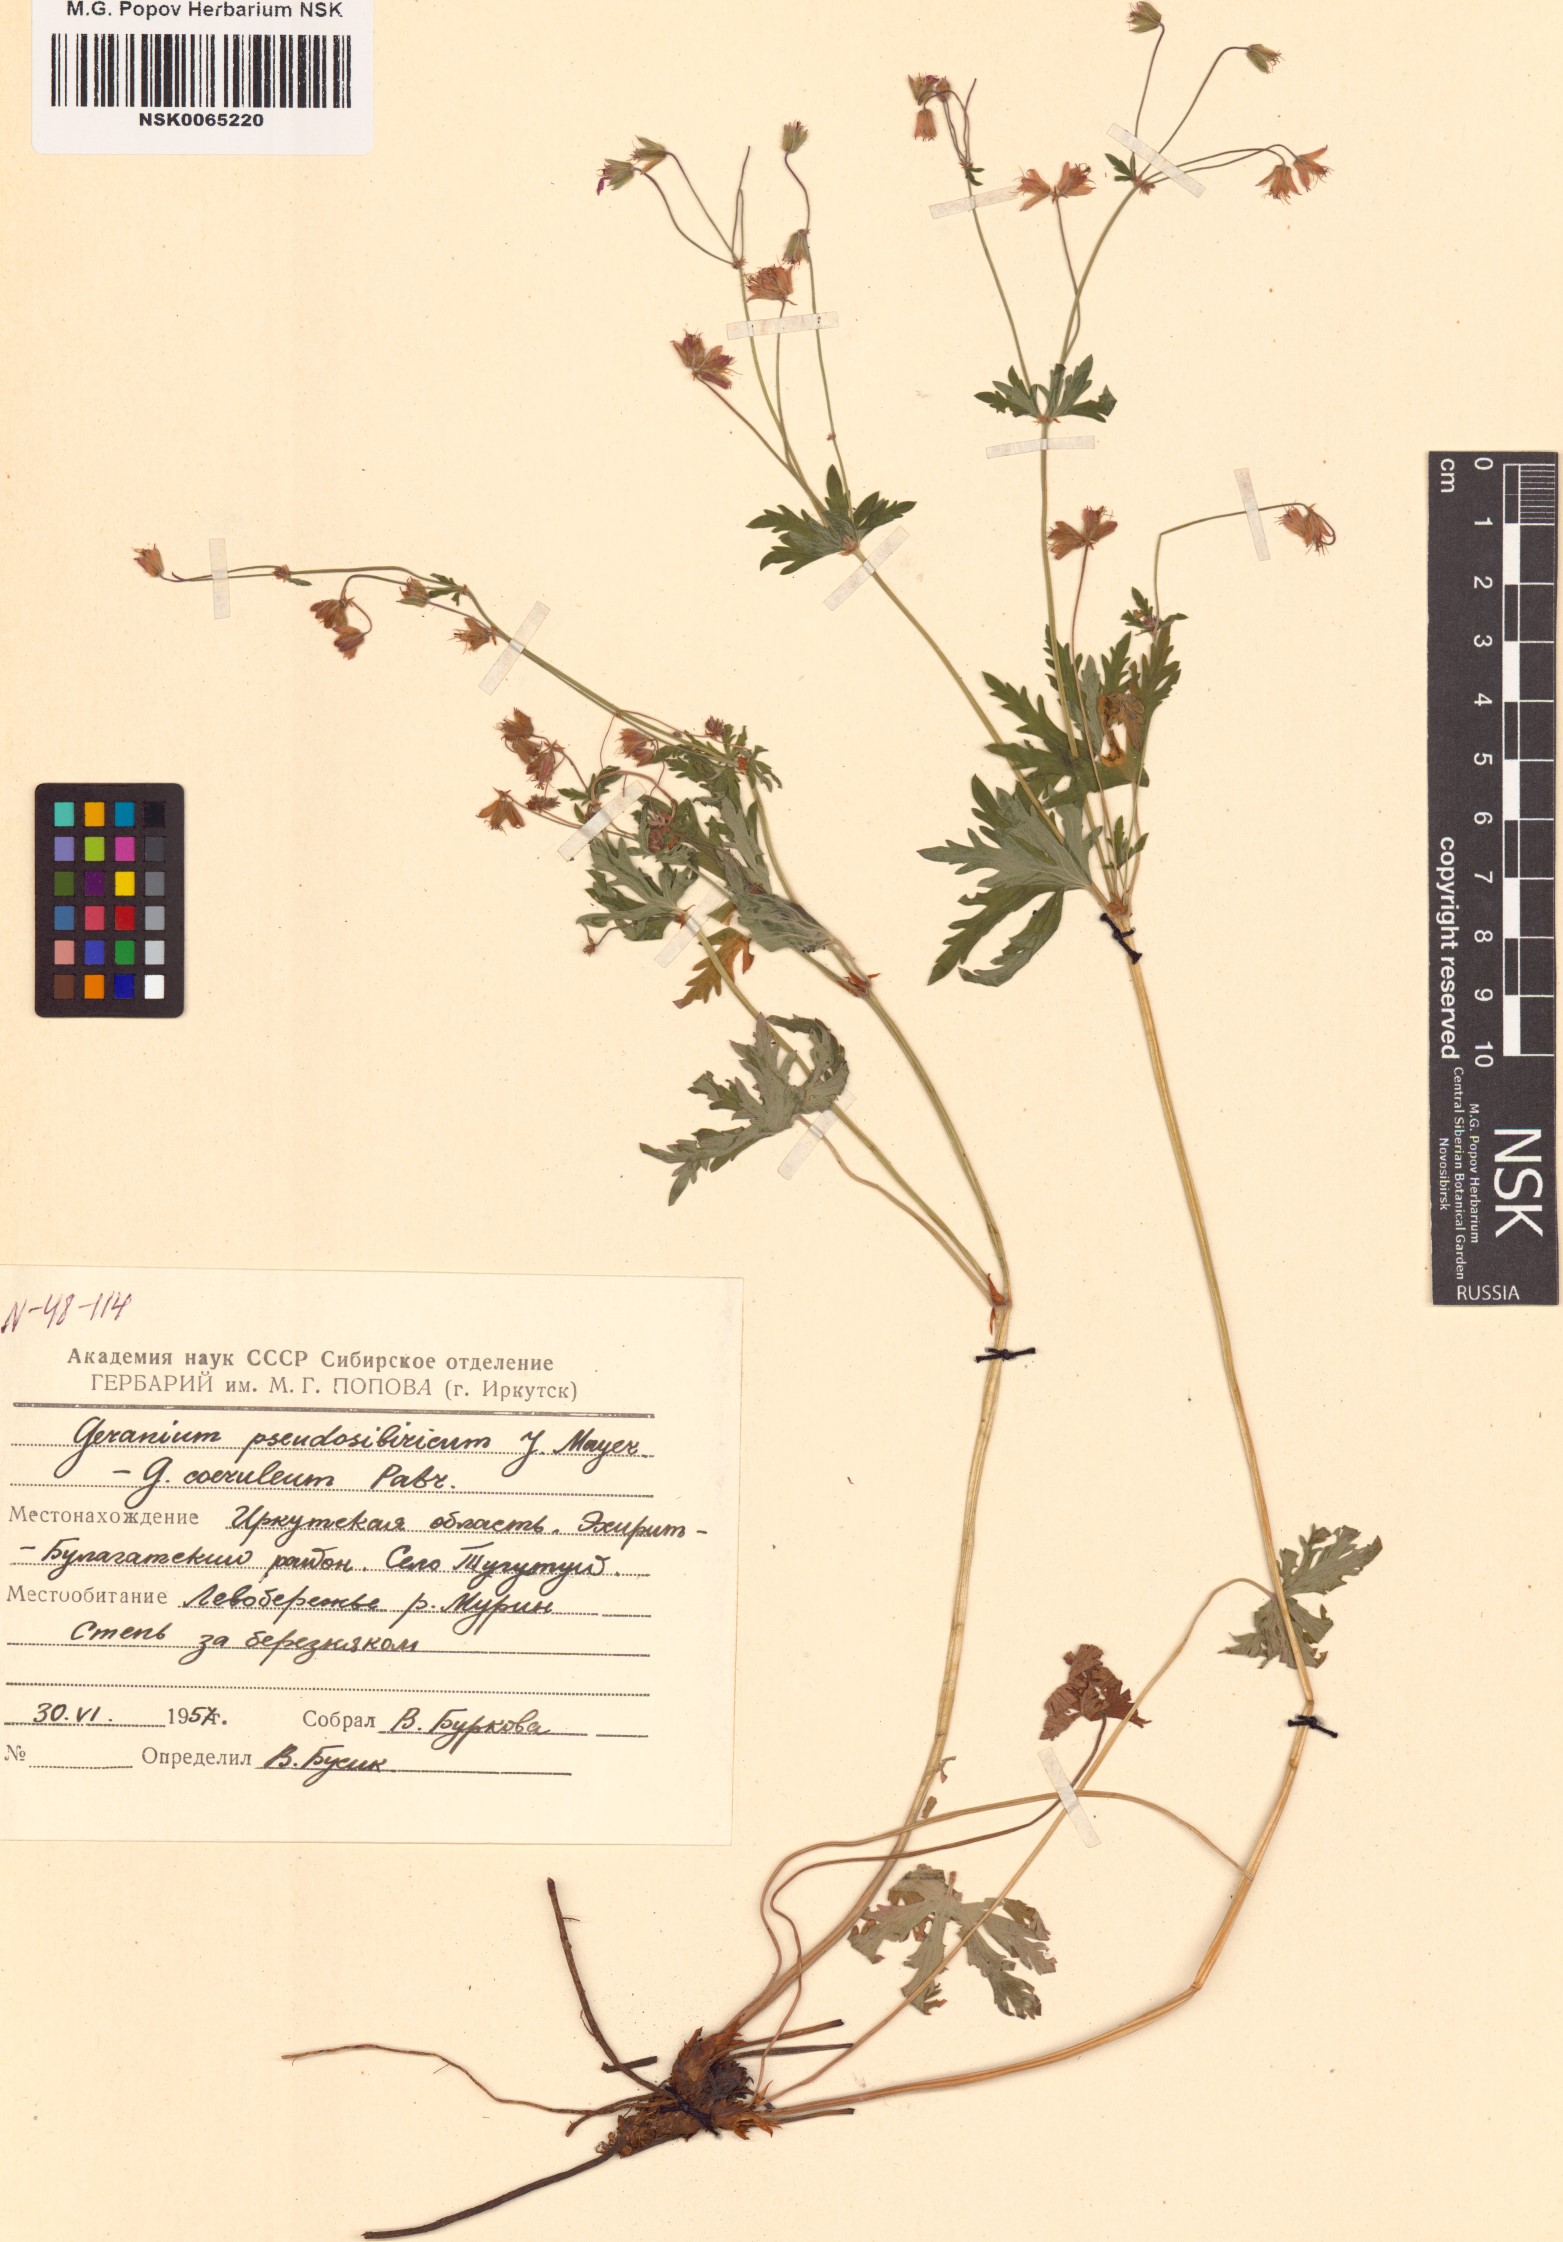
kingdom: Plantae
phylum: Tracheophyta
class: Magnoliopsida
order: Geraniales
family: Geraniaceae
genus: Geranium
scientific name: Geranium pseudosibiricum
